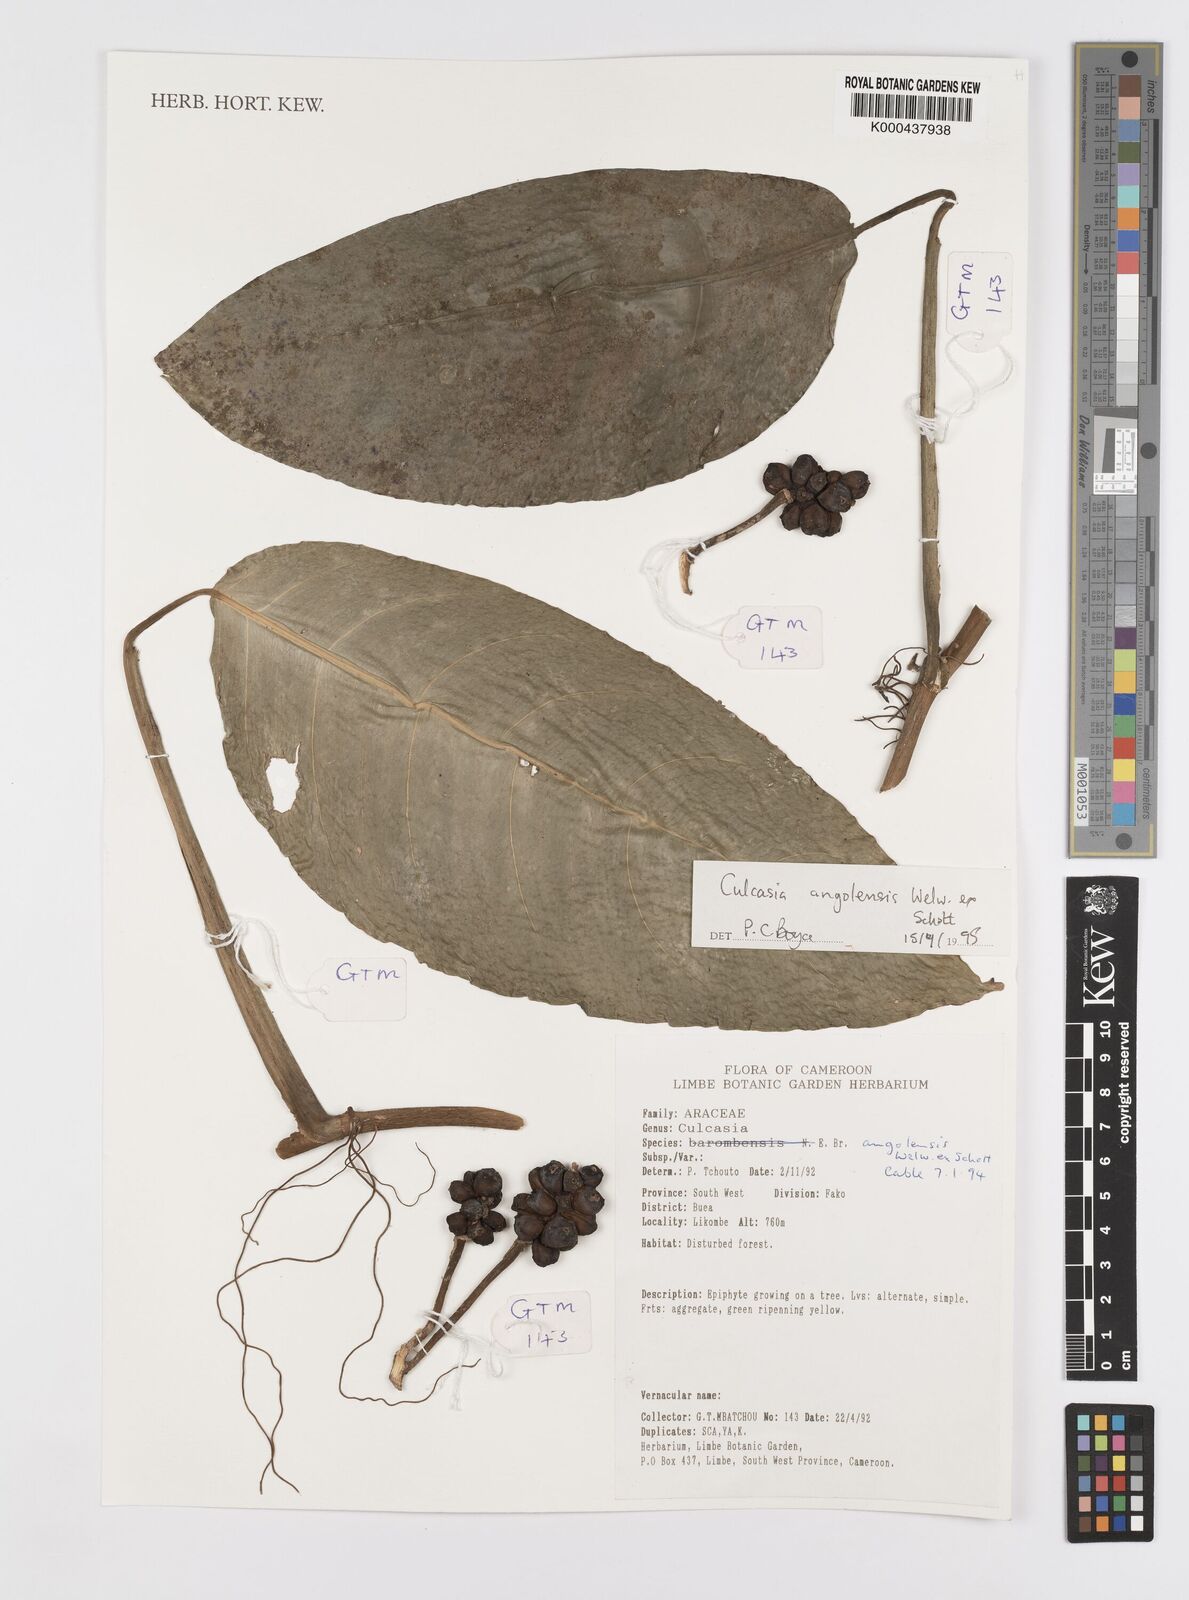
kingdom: Plantae
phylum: Tracheophyta
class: Liliopsida
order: Alismatales
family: Araceae
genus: Culcasia
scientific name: Culcasia angolensis
